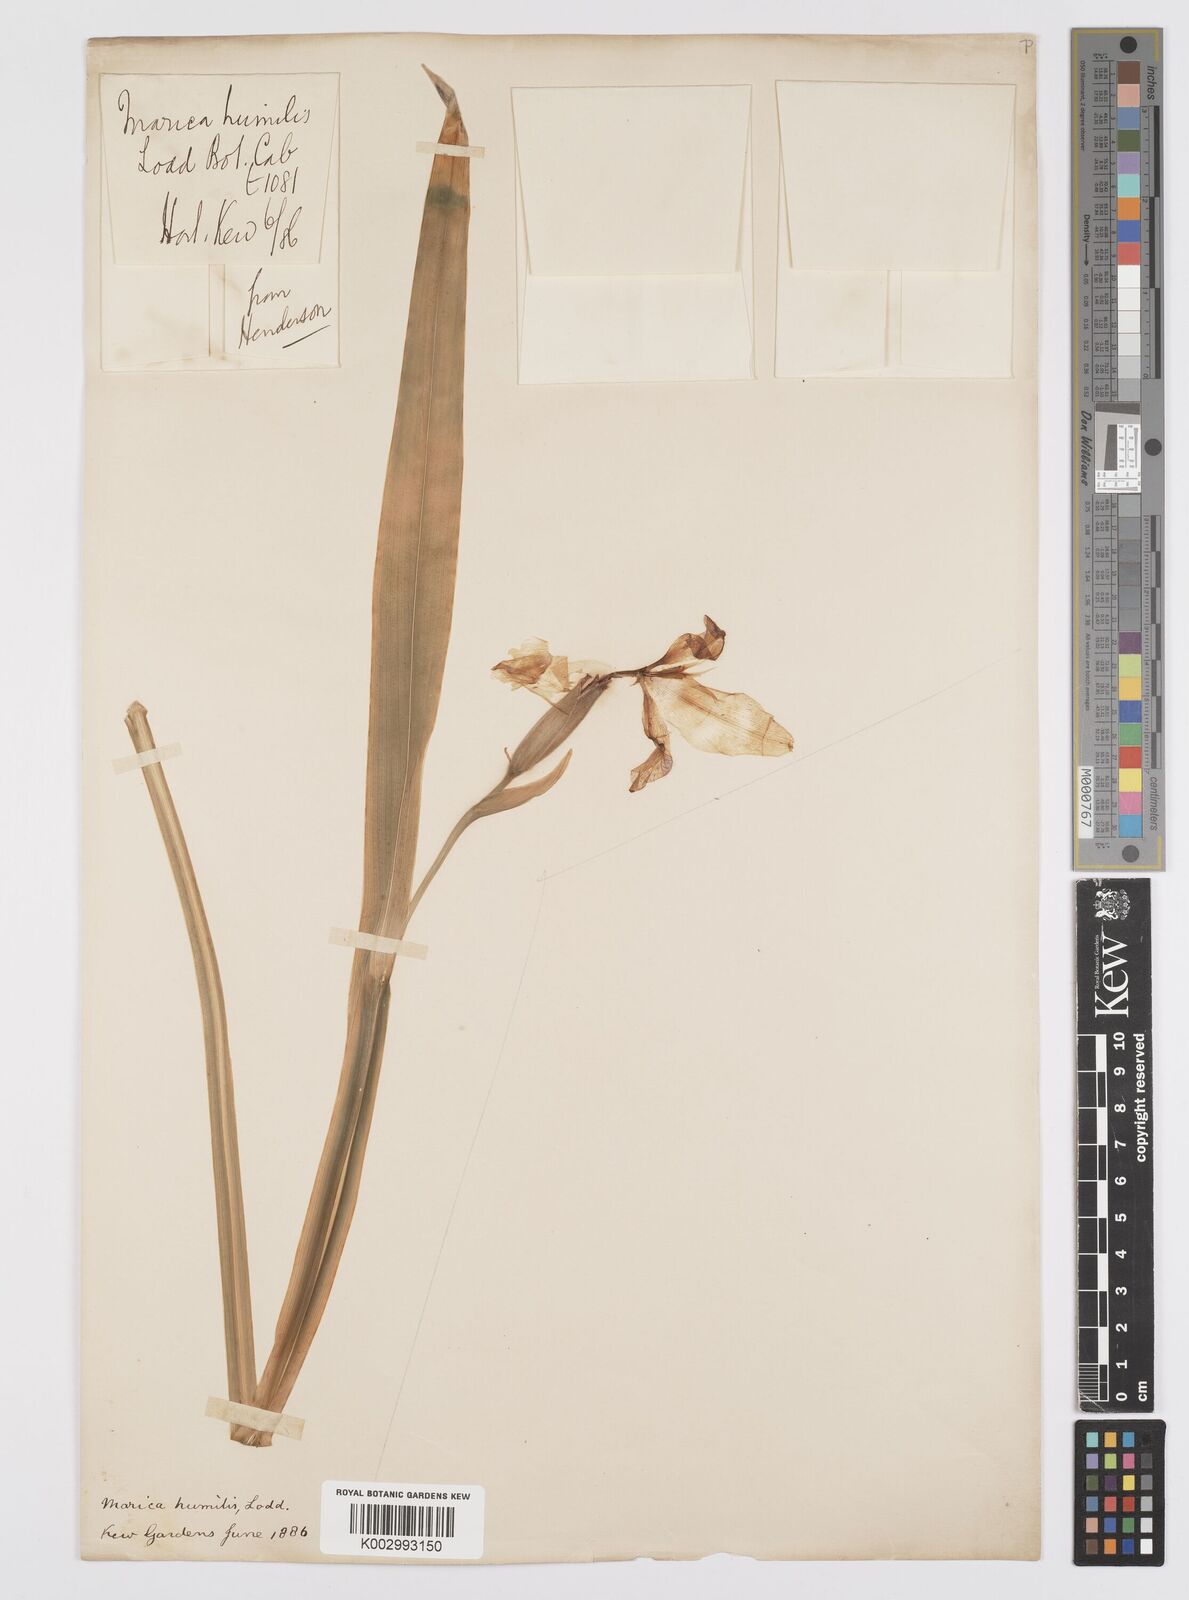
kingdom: Plantae
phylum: Tracheophyta
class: Liliopsida
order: Asparagales
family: Iridaceae
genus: Trimezia
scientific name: Trimezia humilis
